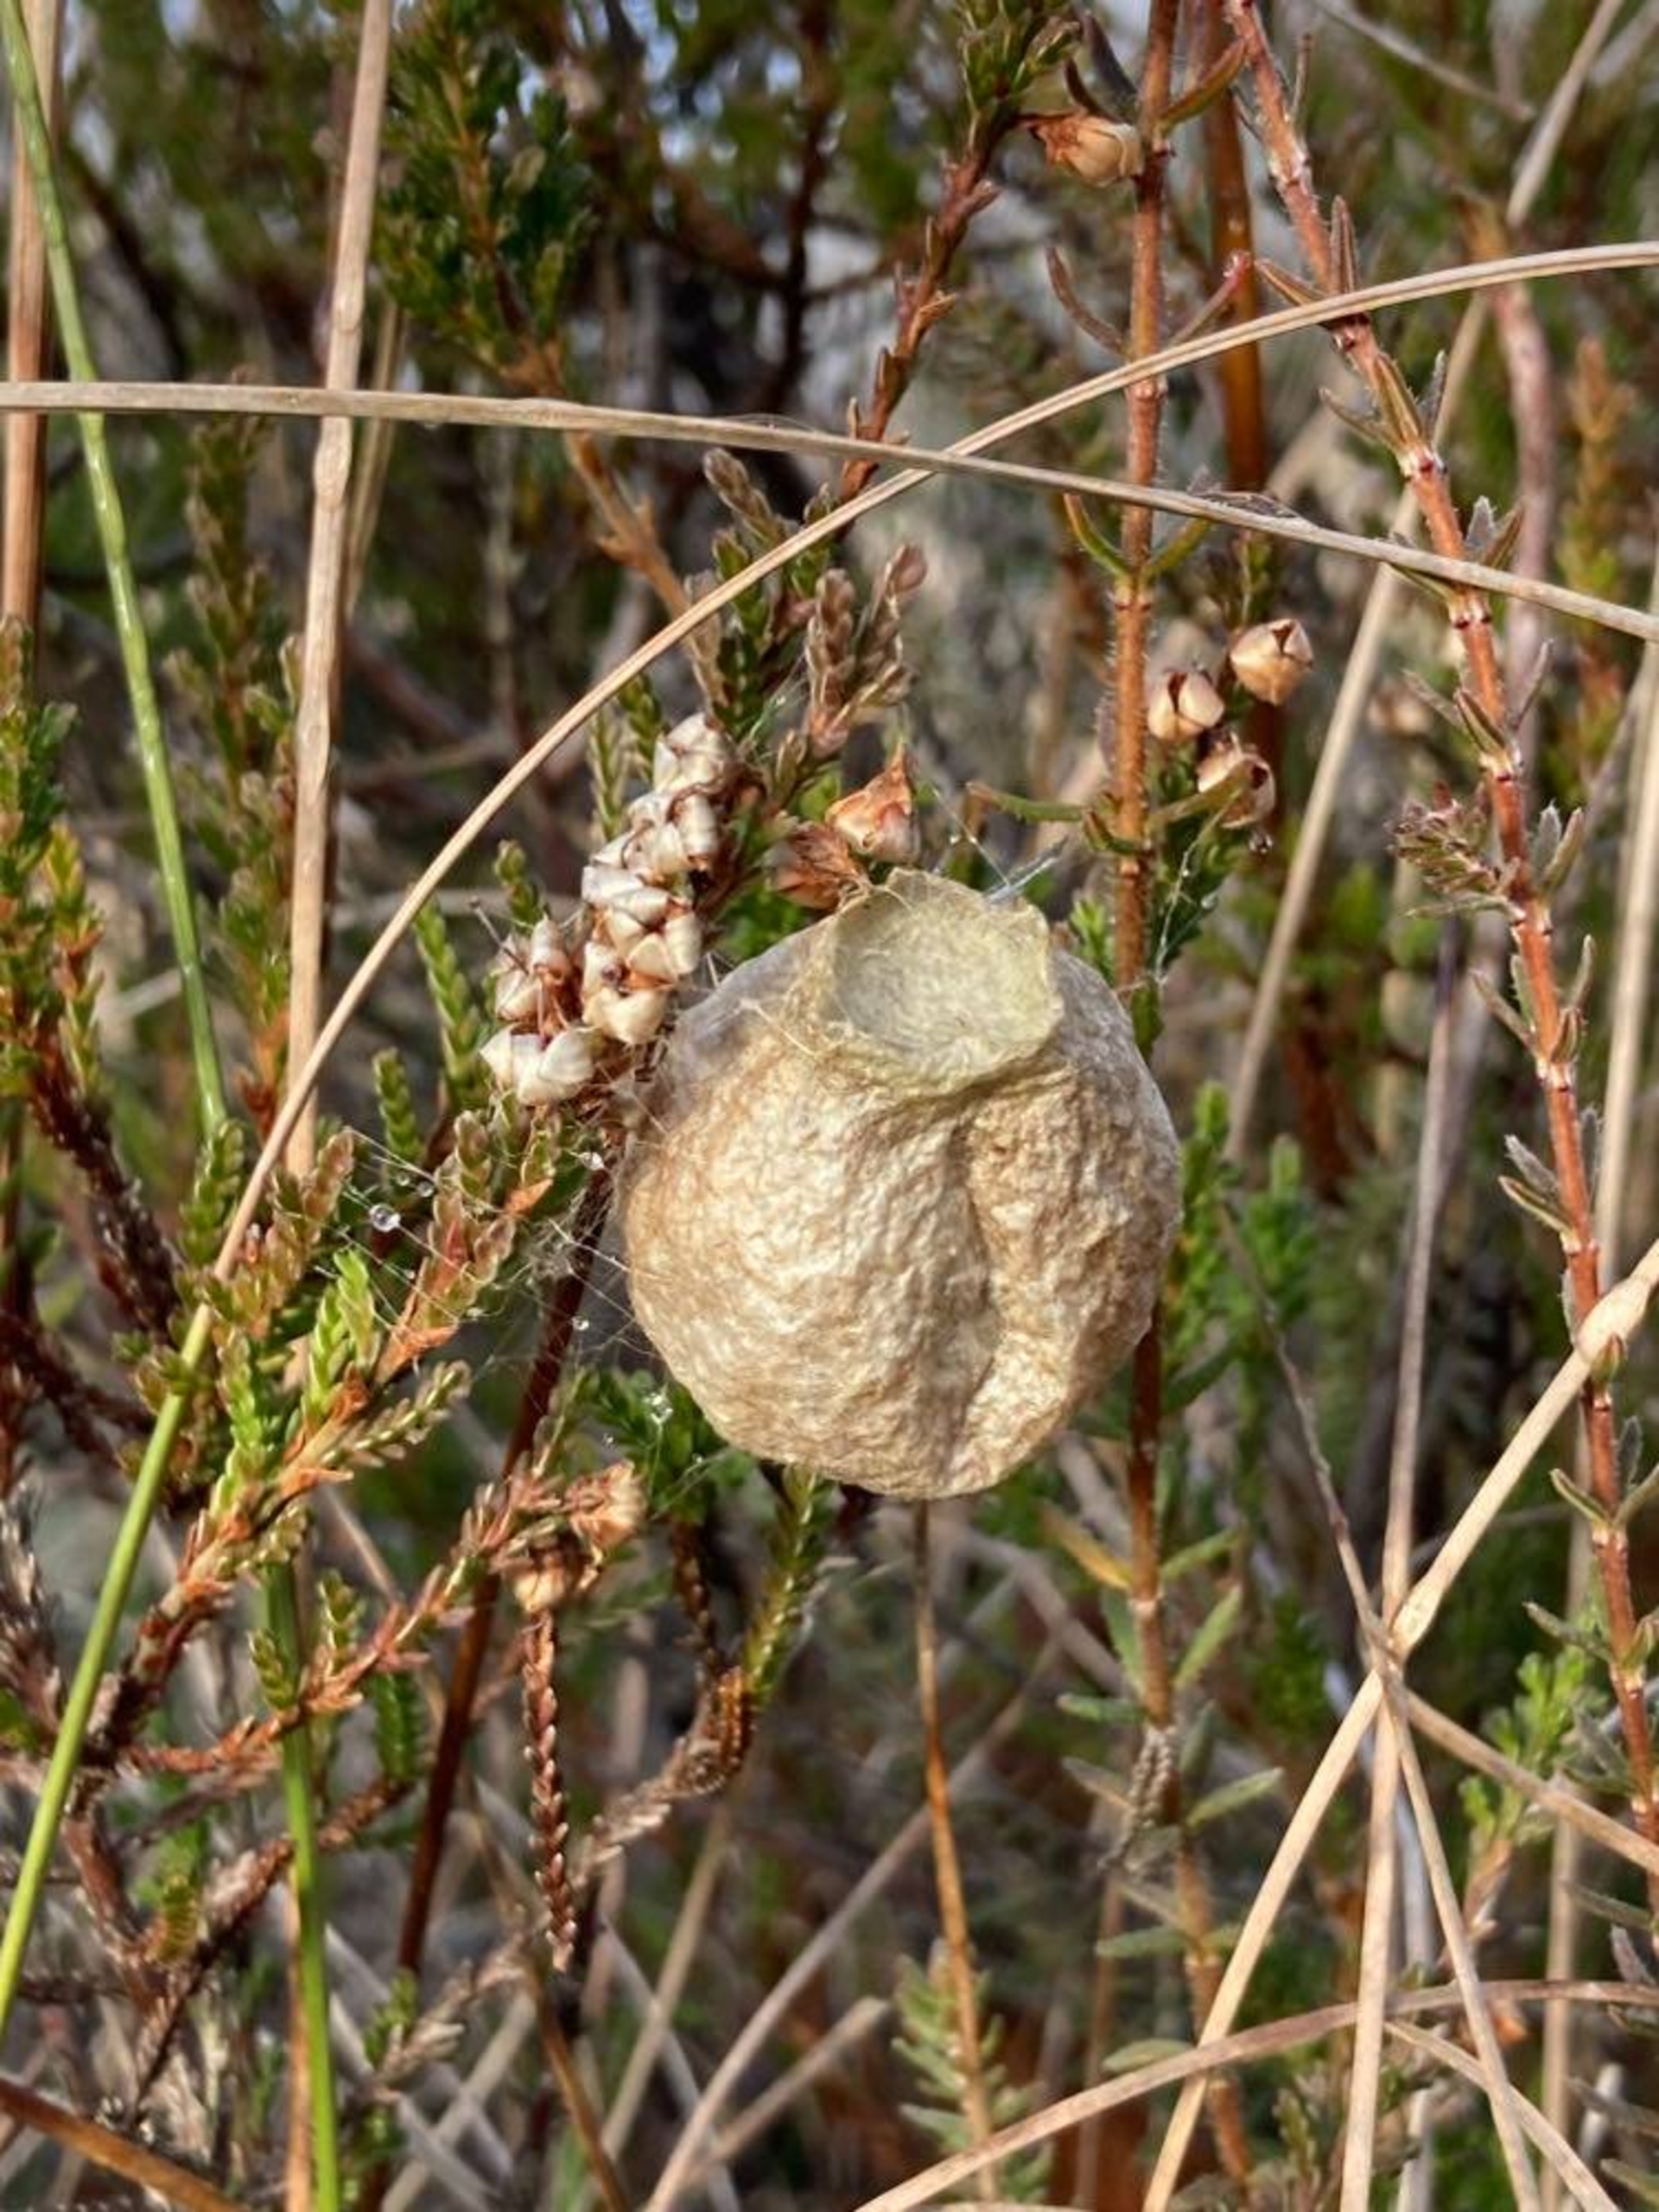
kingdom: Animalia
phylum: Arthropoda
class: Arachnida
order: Araneae
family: Araneidae
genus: Argiope
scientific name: Argiope bruennichi
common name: Hvepseedderkop
